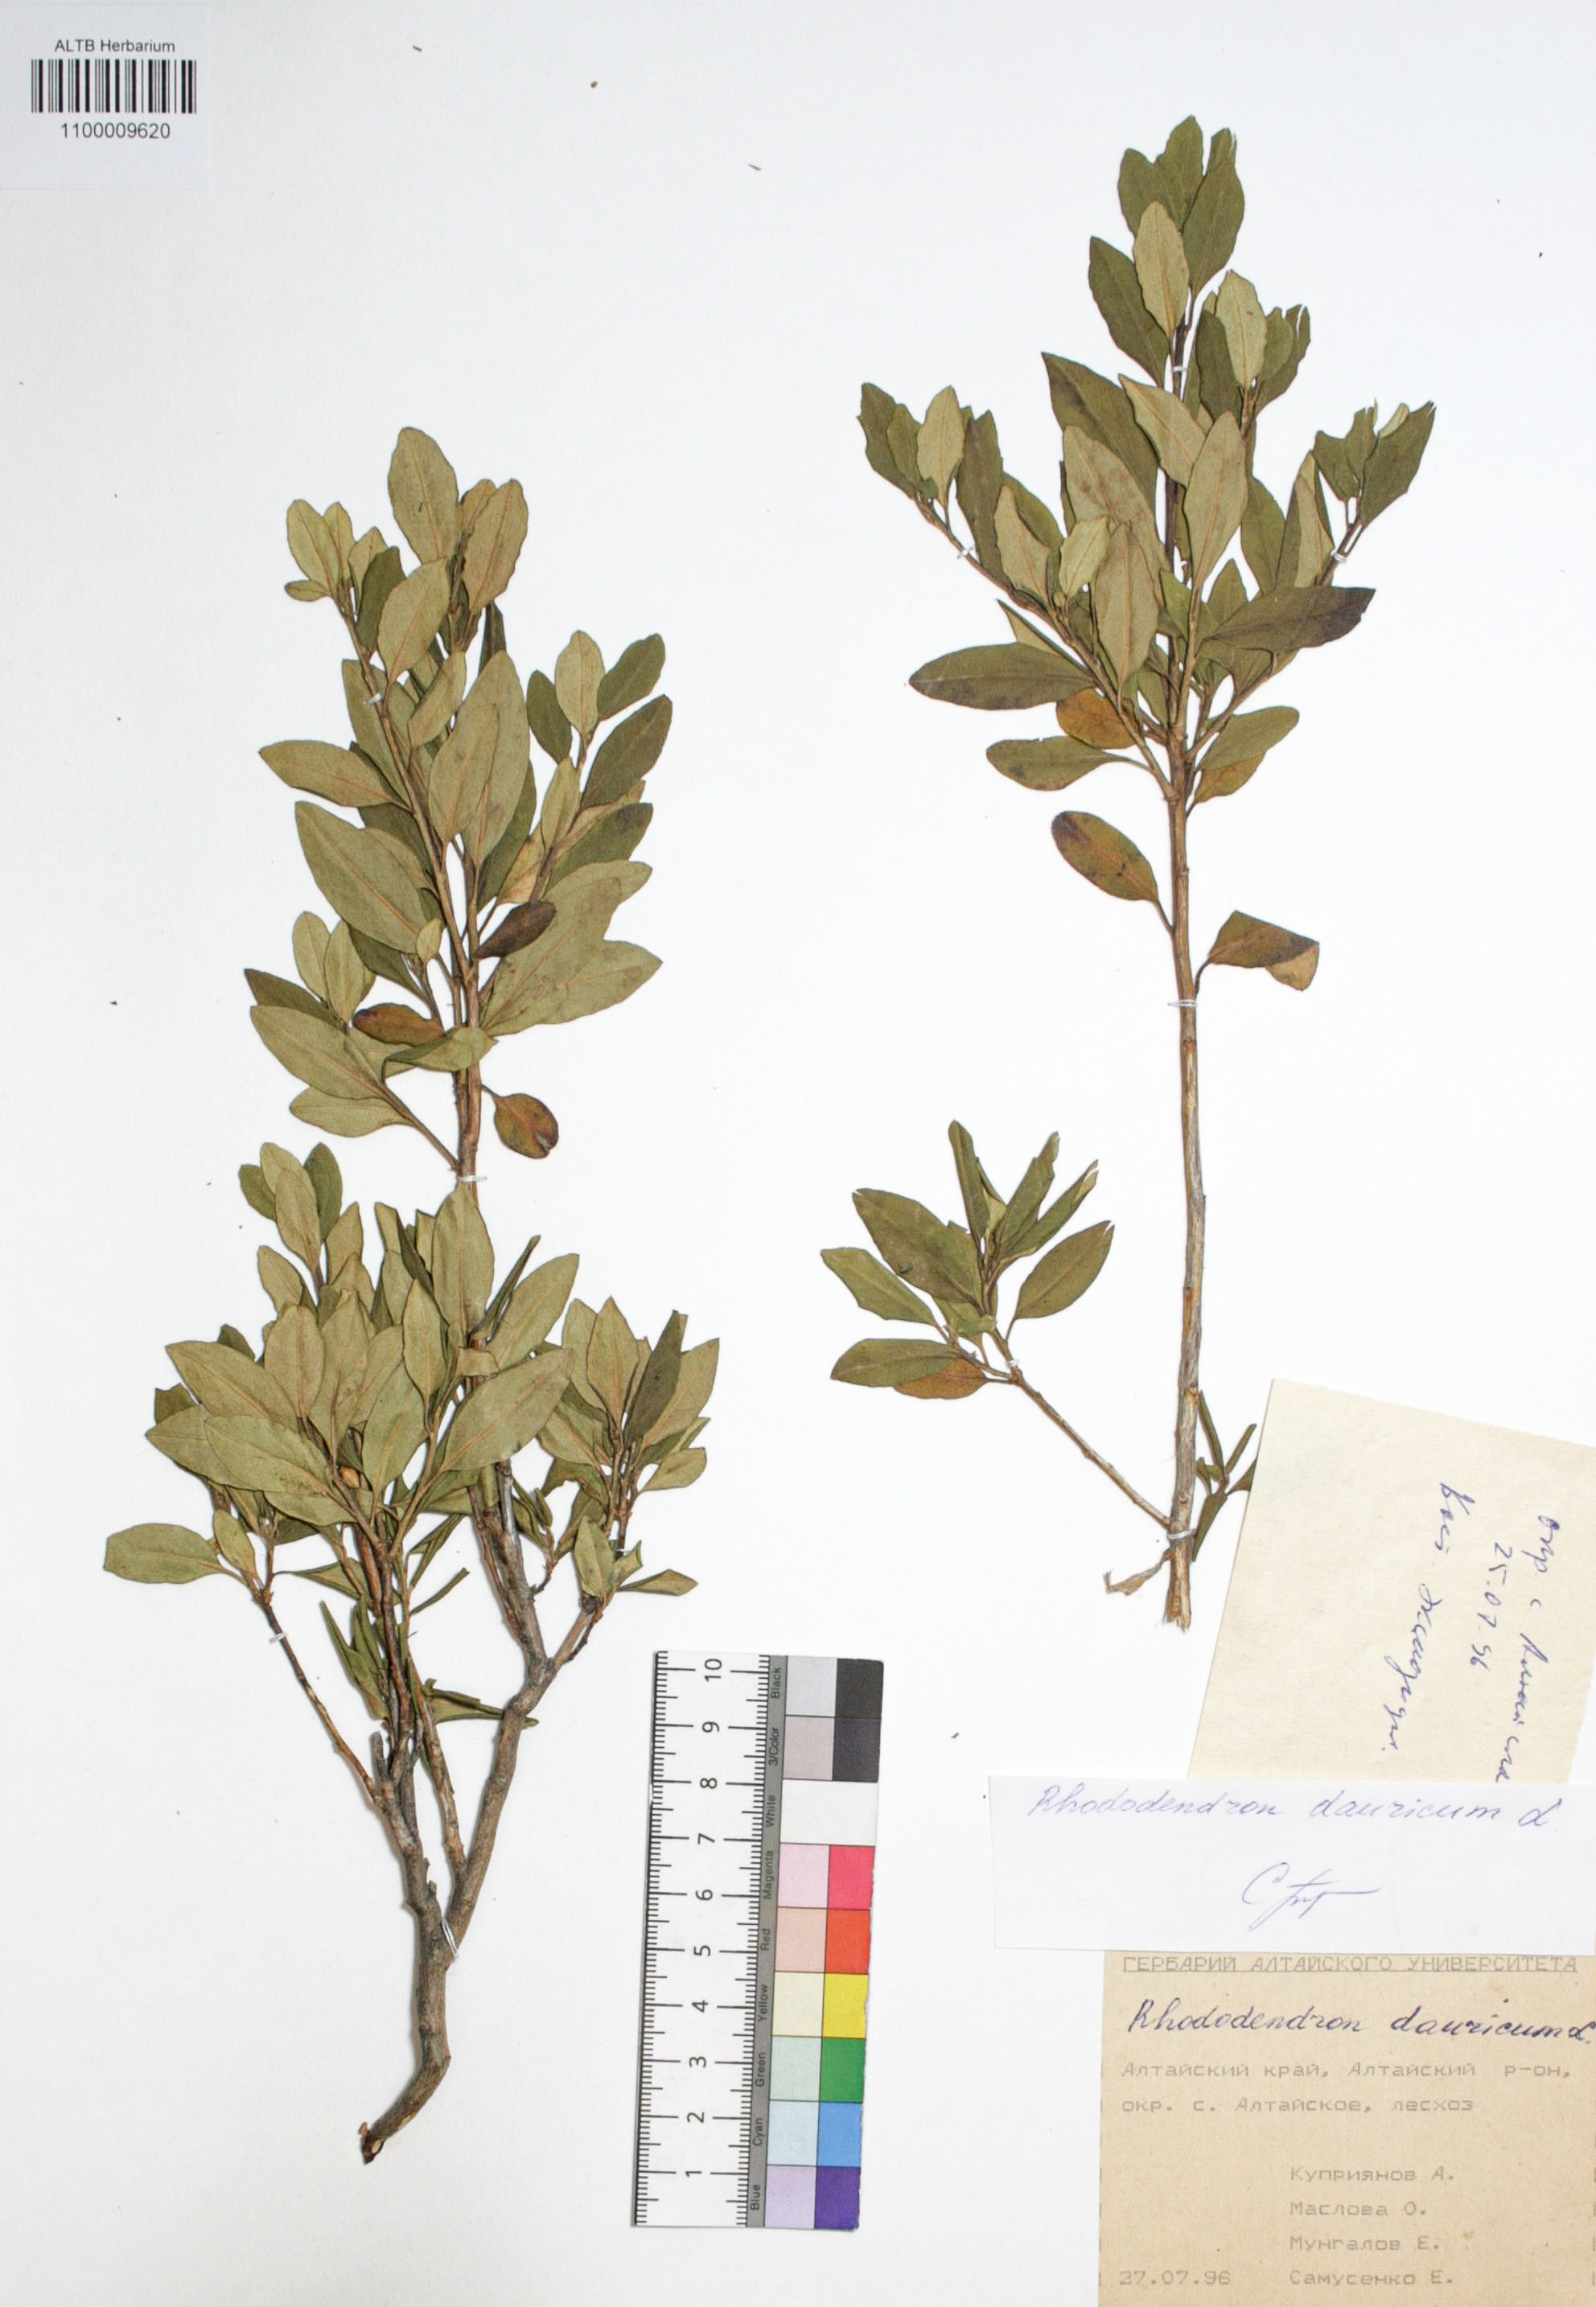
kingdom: Plantae
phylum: Tracheophyta
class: Magnoliopsida
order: Ericales
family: Ericaceae
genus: Rhododendron
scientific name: Rhododendron dahuricum
